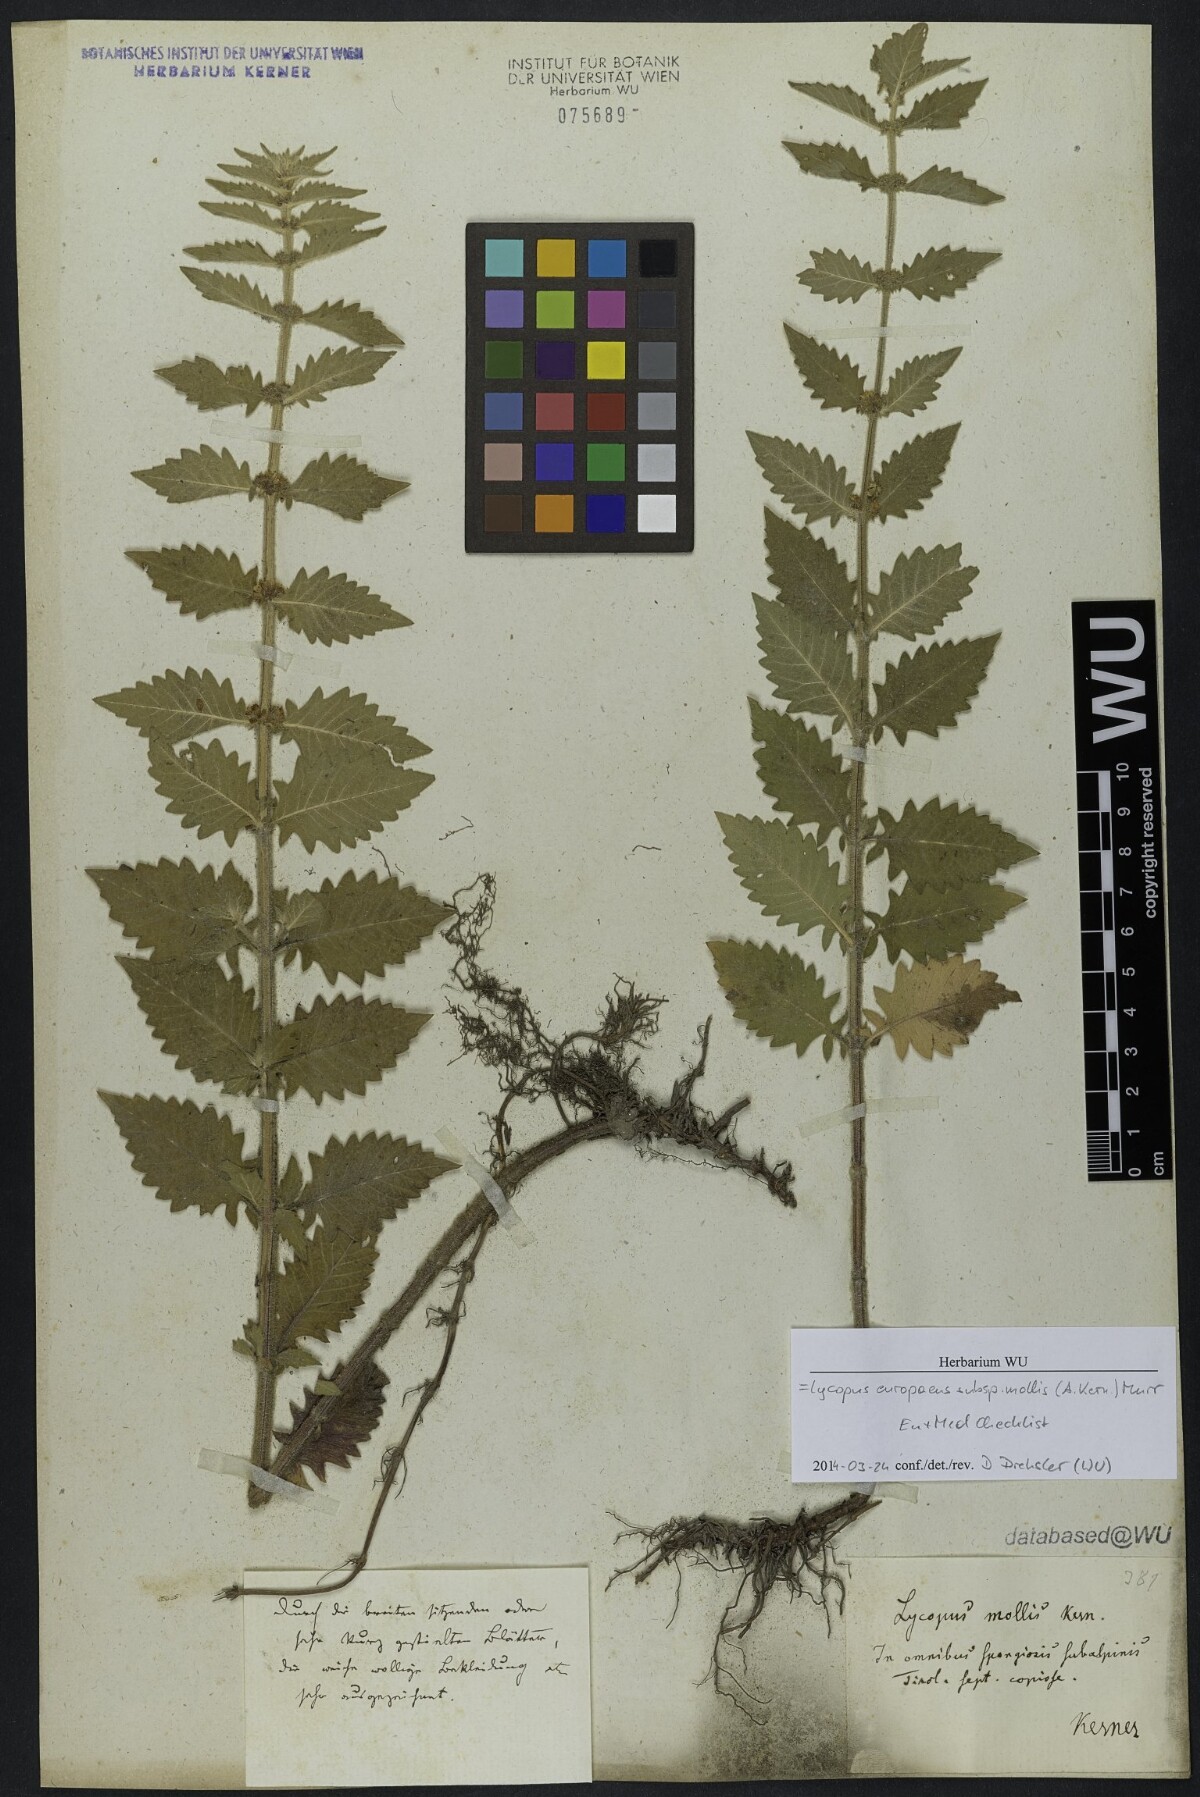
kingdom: Plantae
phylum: Tracheophyta
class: Magnoliopsida
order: Lamiales
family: Lamiaceae
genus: Lycopus
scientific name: Lycopus europaeus
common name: European bugleweed
